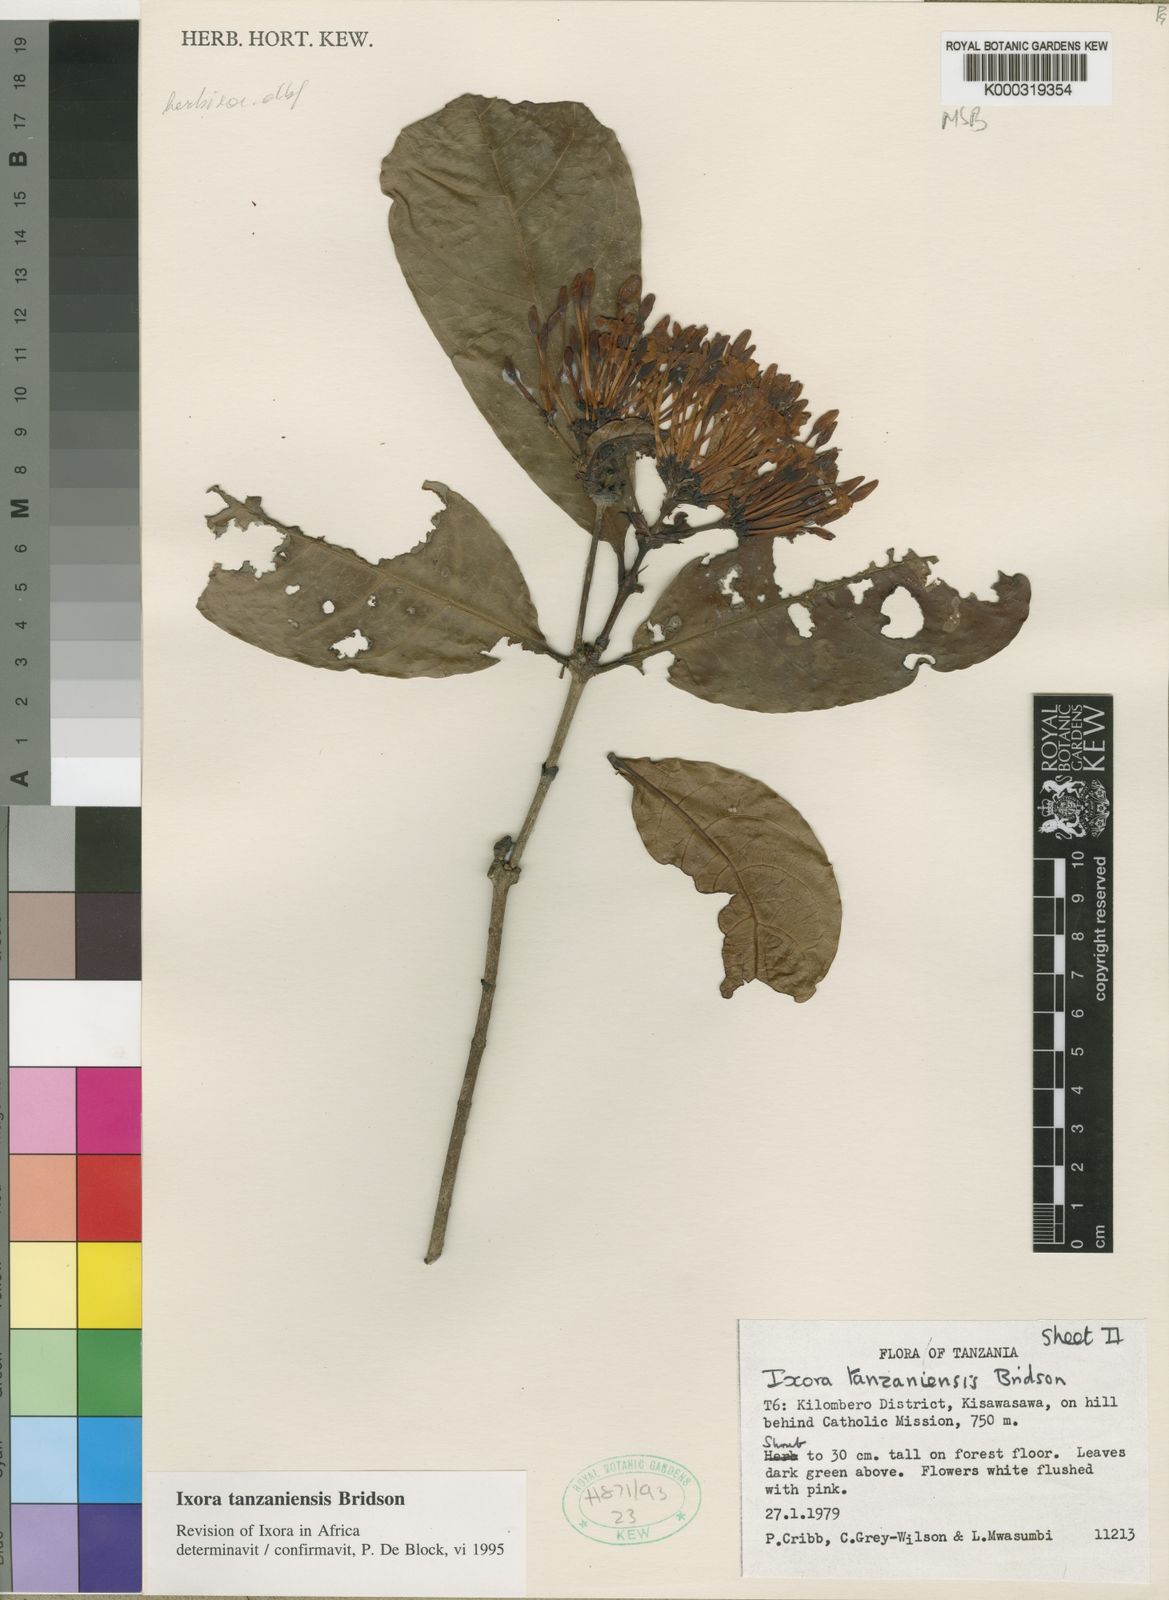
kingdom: Plantae
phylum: Tracheophyta
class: Magnoliopsida
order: Gentianales
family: Rubiaceae
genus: Ixora
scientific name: Ixora tanzaniensis
